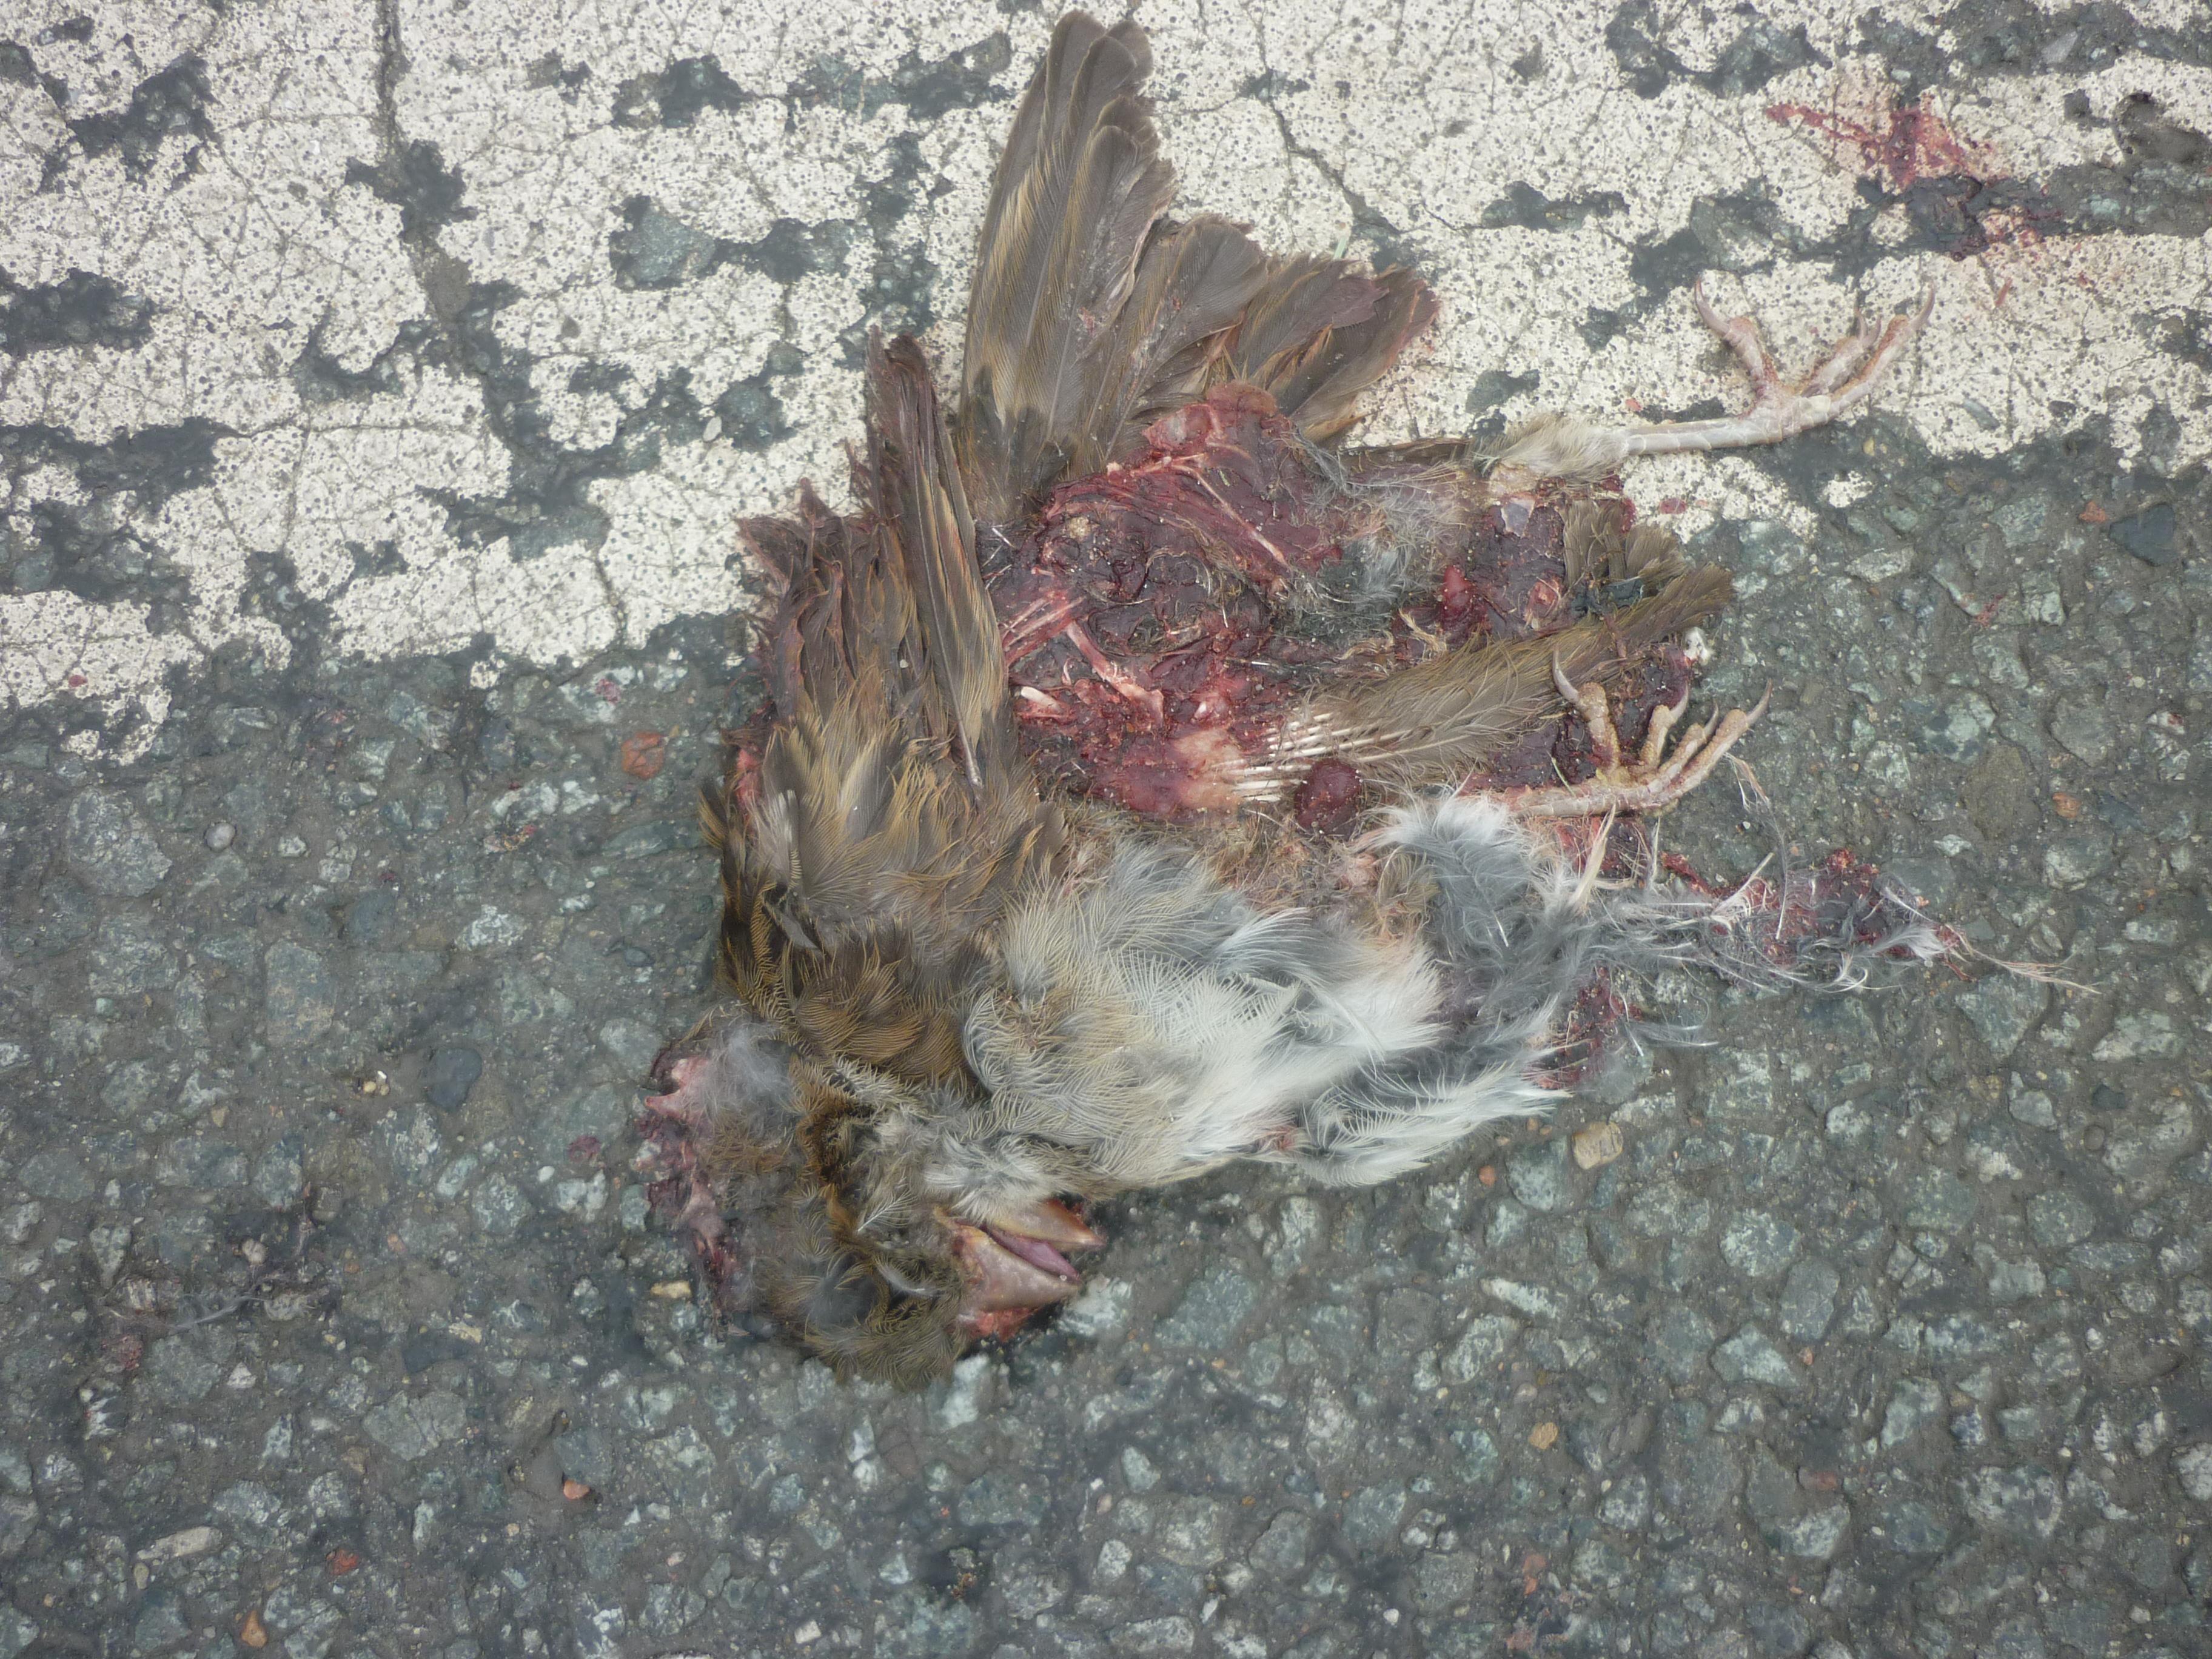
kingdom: Animalia
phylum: Chordata
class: Aves
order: Passeriformes
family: Passeridae
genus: Passer
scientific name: Passer domesticus
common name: House sparrow
